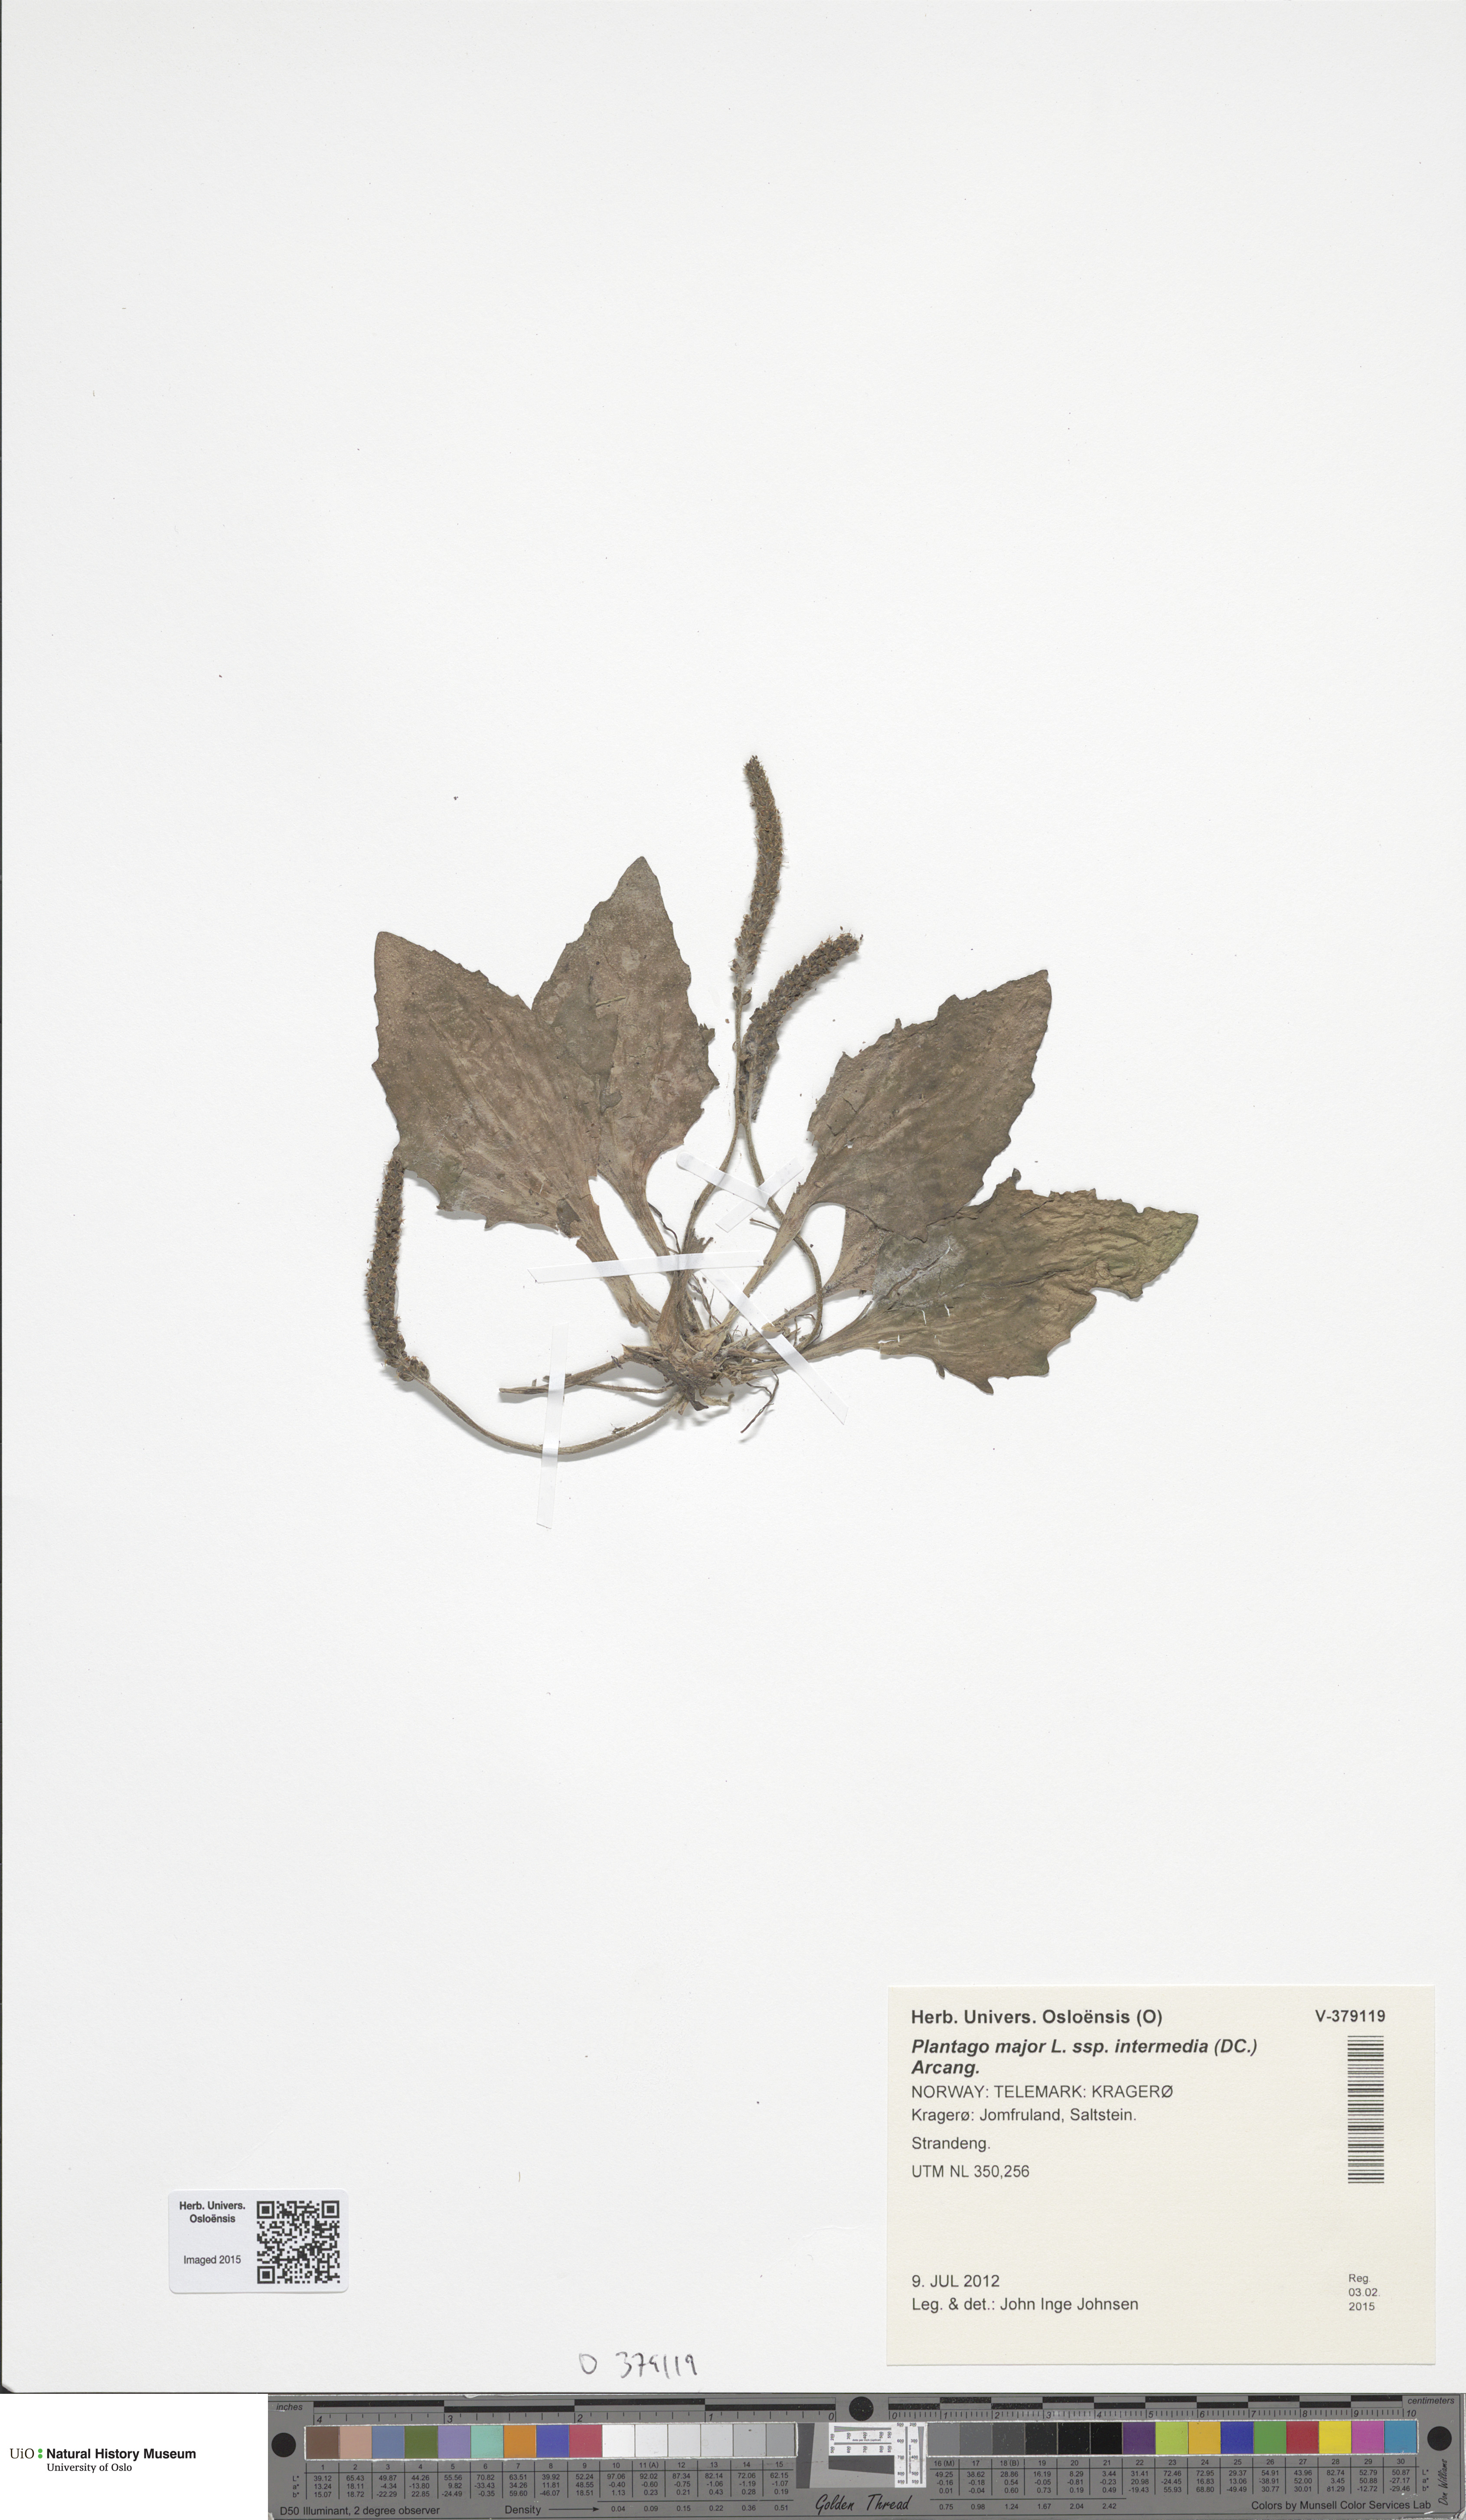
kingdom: Plantae
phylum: Tracheophyta
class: Magnoliopsida
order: Lamiales
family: Plantaginaceae
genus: Plantago
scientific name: Plantago uliginosa
